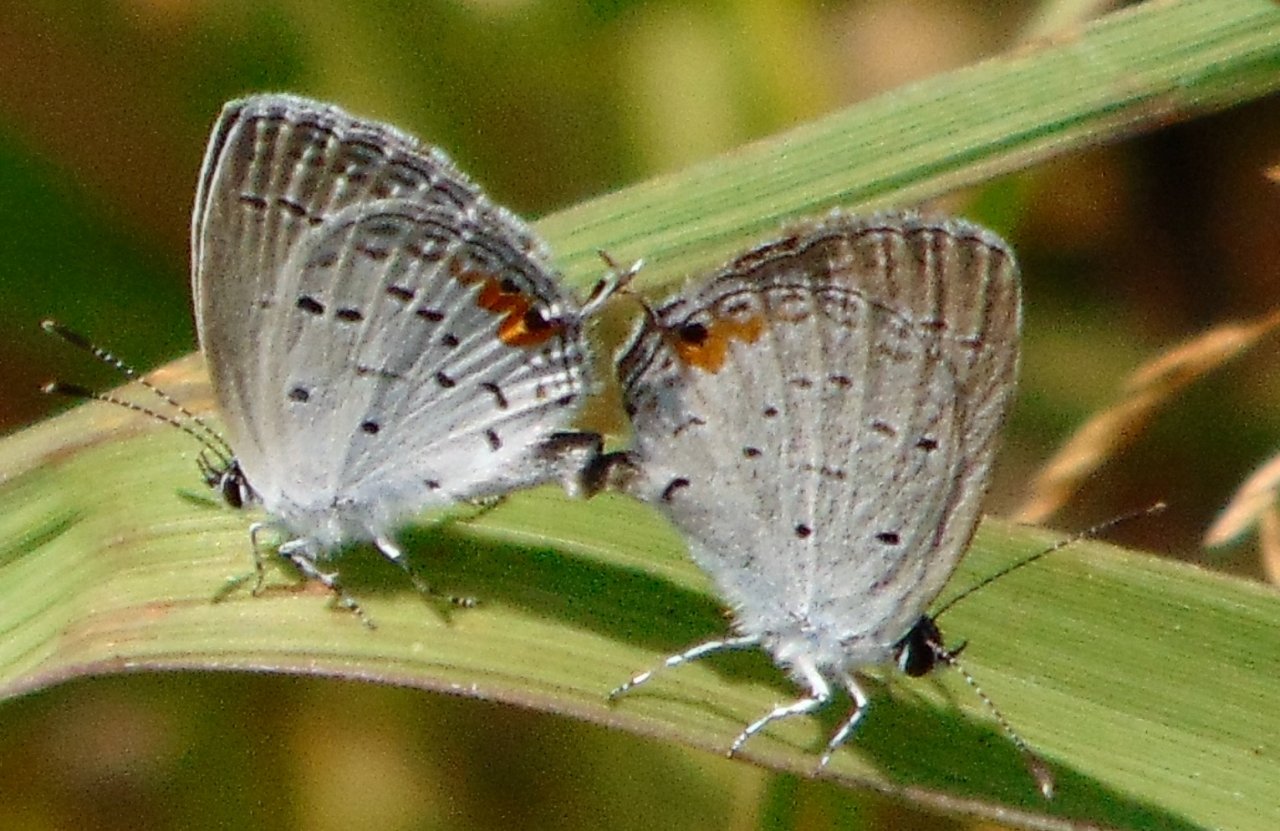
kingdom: Animalia
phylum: Arthropoda
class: Insecta
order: Lepidoptera
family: Lycaenidae
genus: Elkalyce
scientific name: Elkalyce comyntas
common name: Eastern Tailed-Blue
